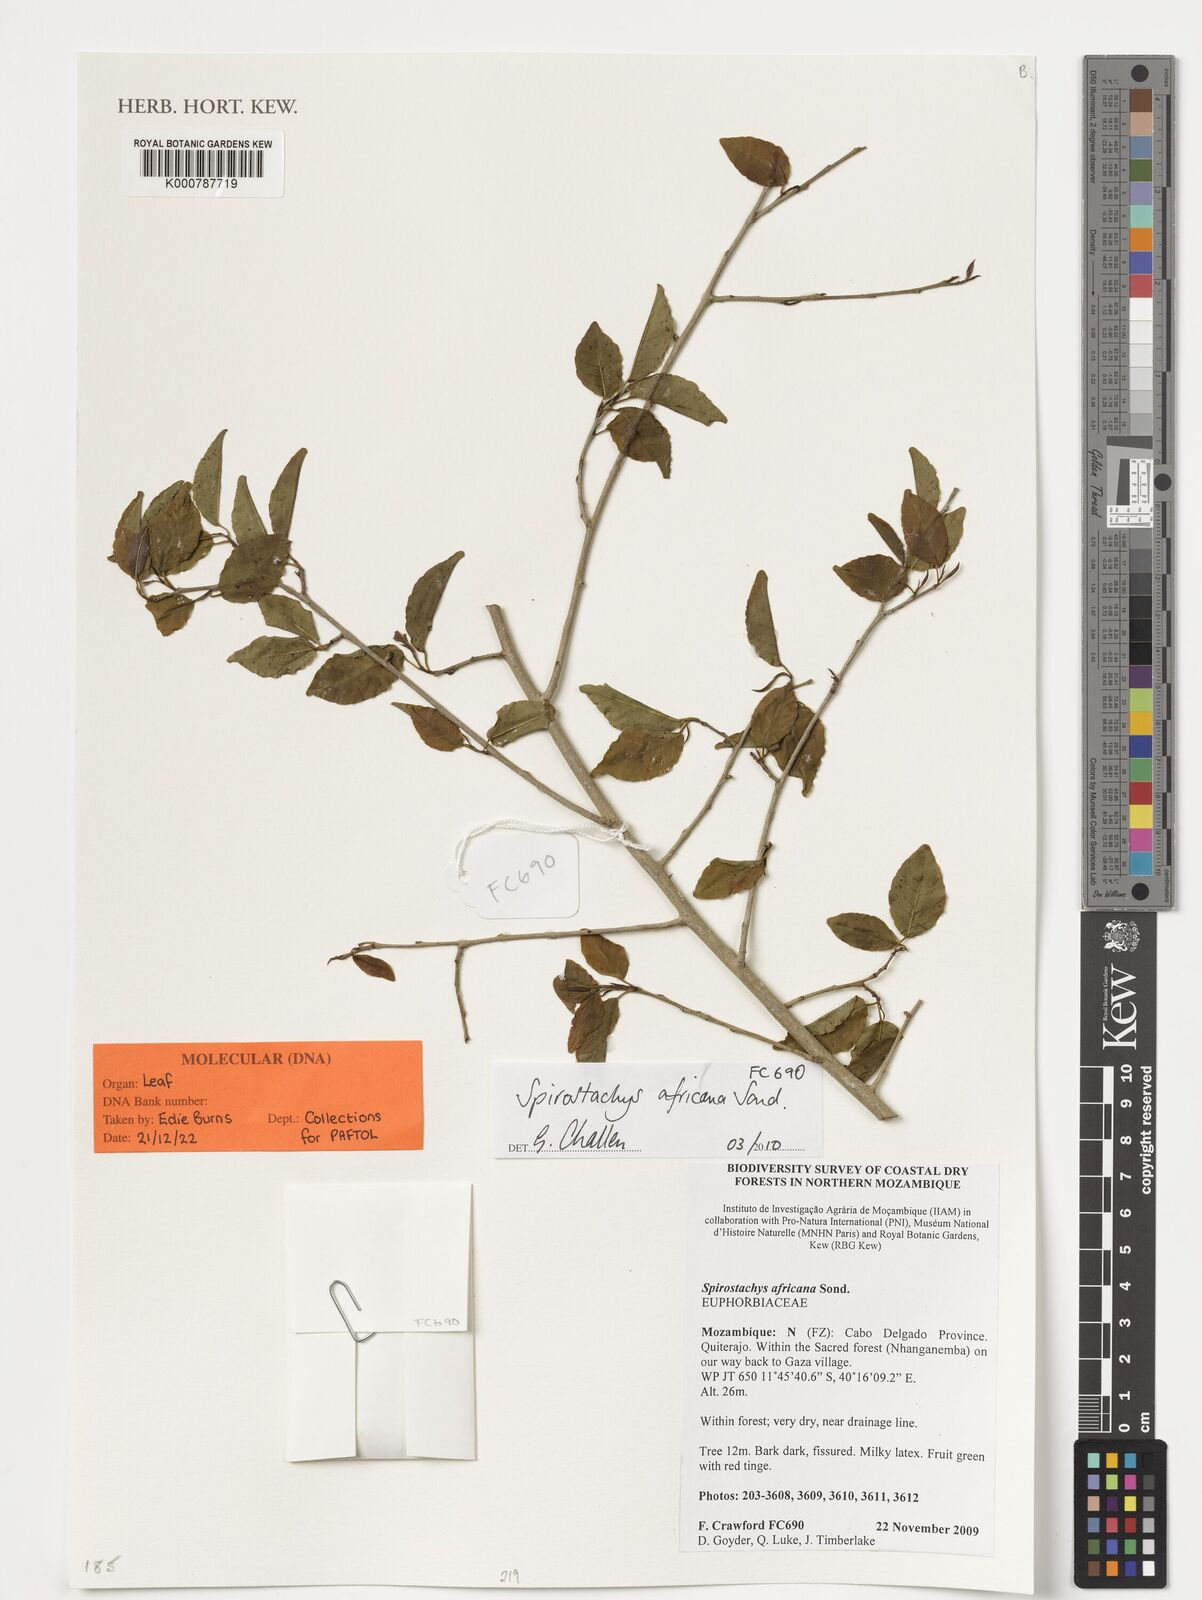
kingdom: Plantae
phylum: Tracheophyta
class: Magnoliopsida
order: Malpighiales
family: Euphorbiaceae
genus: Spirostachys
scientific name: Spirostachys africana
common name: Tamboti
